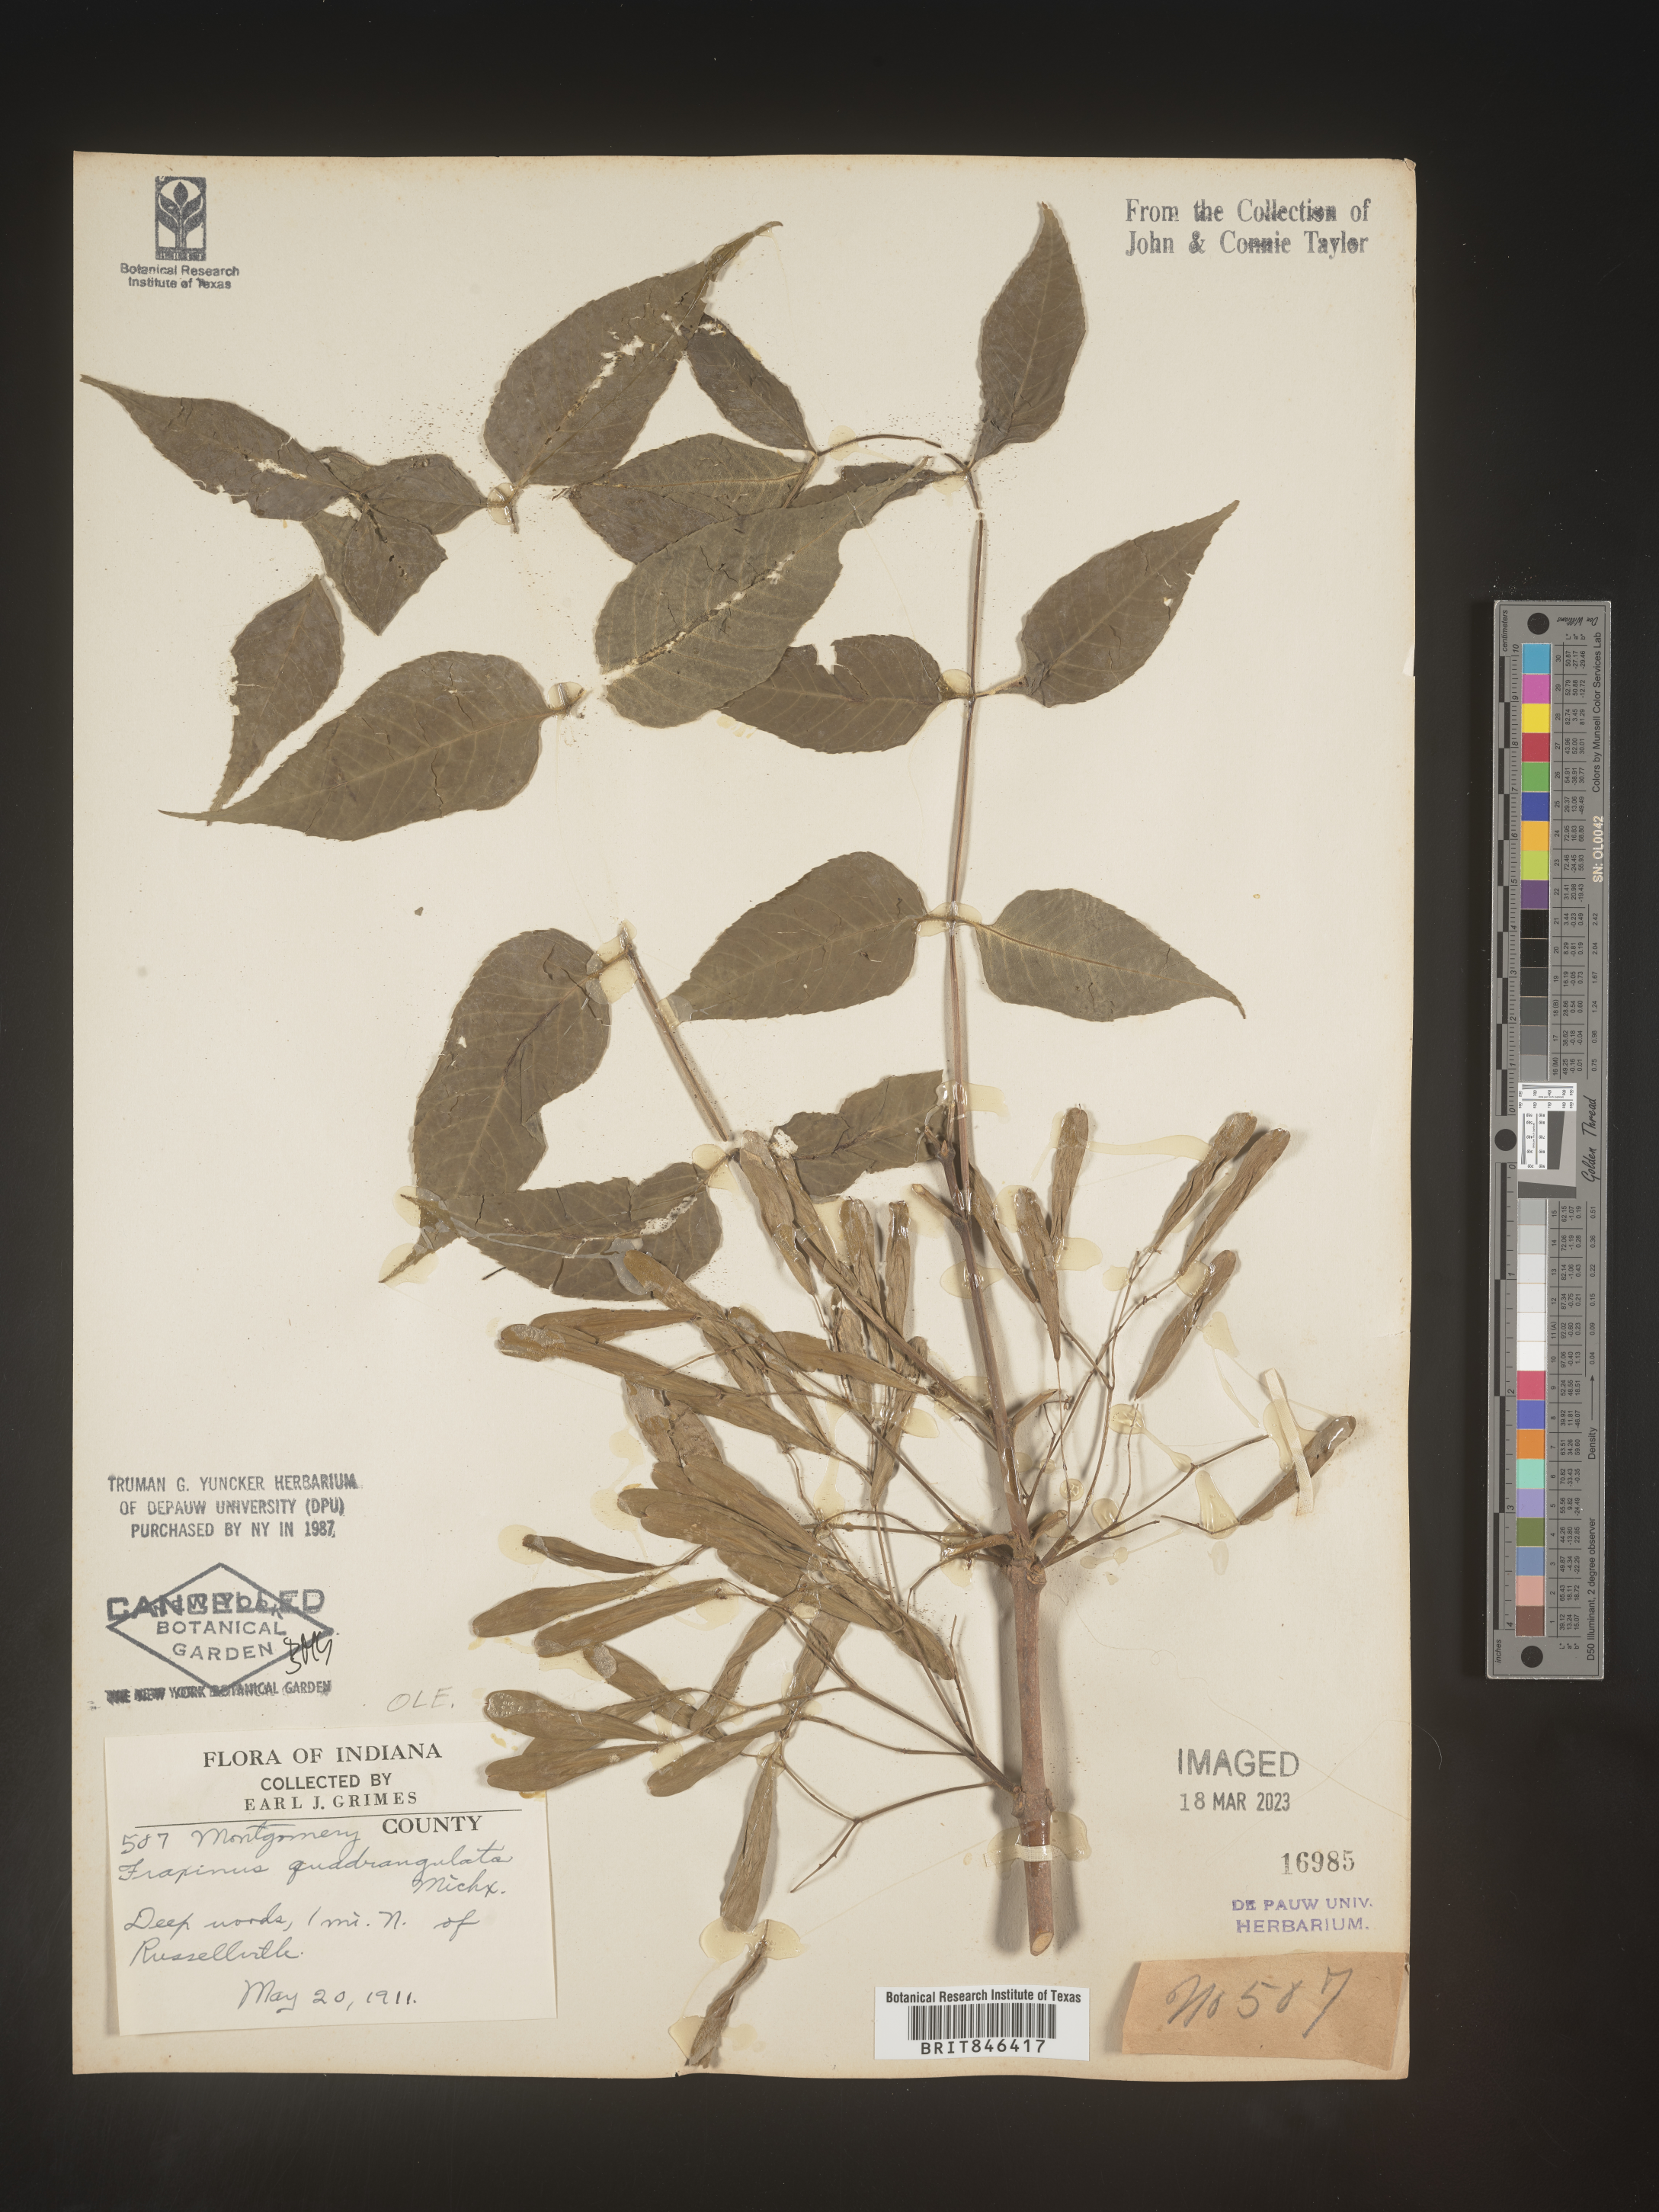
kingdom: Plantae
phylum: Tracheophyta
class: Magnoliopsida
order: Lamiales
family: Oleaceae
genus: Fraxinus
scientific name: Fraxinus quadrangulata
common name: Blue ash
